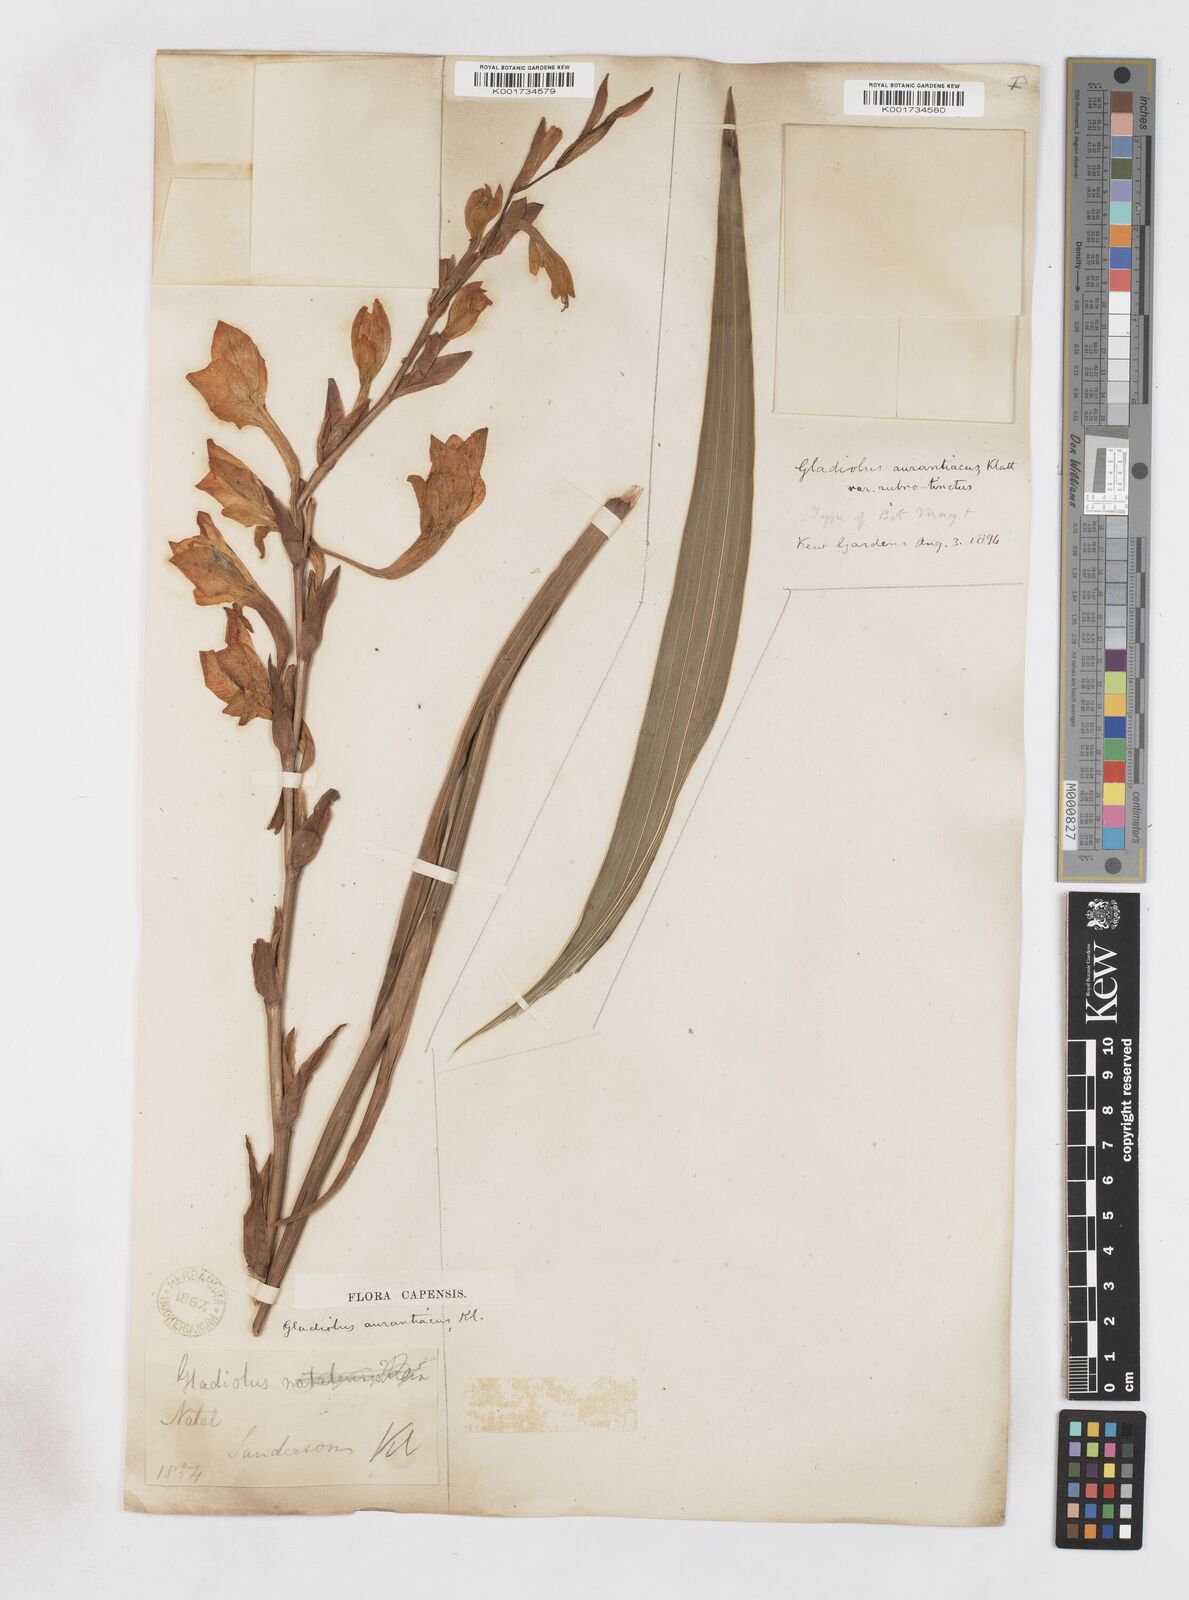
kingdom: Plantae
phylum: Tracheophyta
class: Liliopsida
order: Asparagales
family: Iridaceae
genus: Gladiolus
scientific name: Gladiolus aurantiacus
